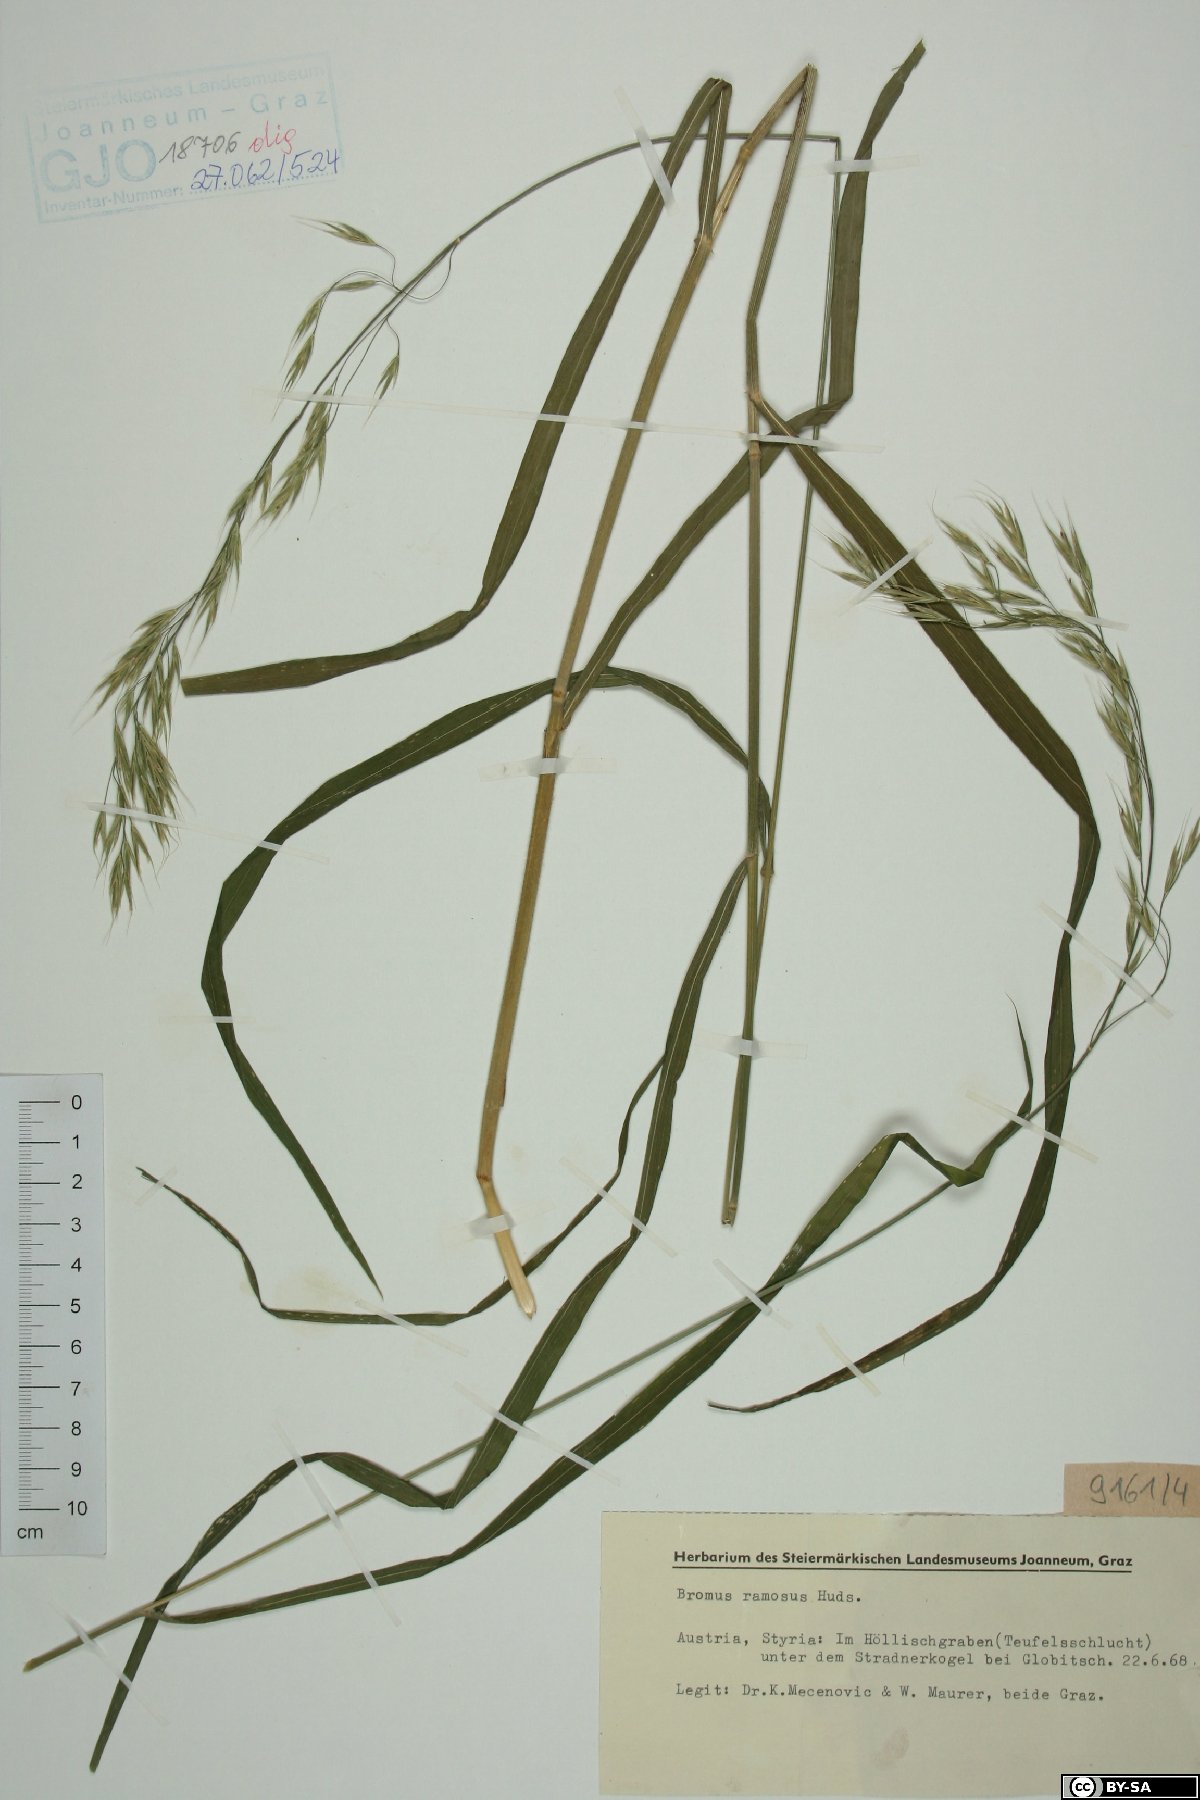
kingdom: Plantae
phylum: Tracheophyta
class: Liliopsida
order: Poales
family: Poaceae
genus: Bromus
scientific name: Bromus ramosus
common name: Hairy brome
